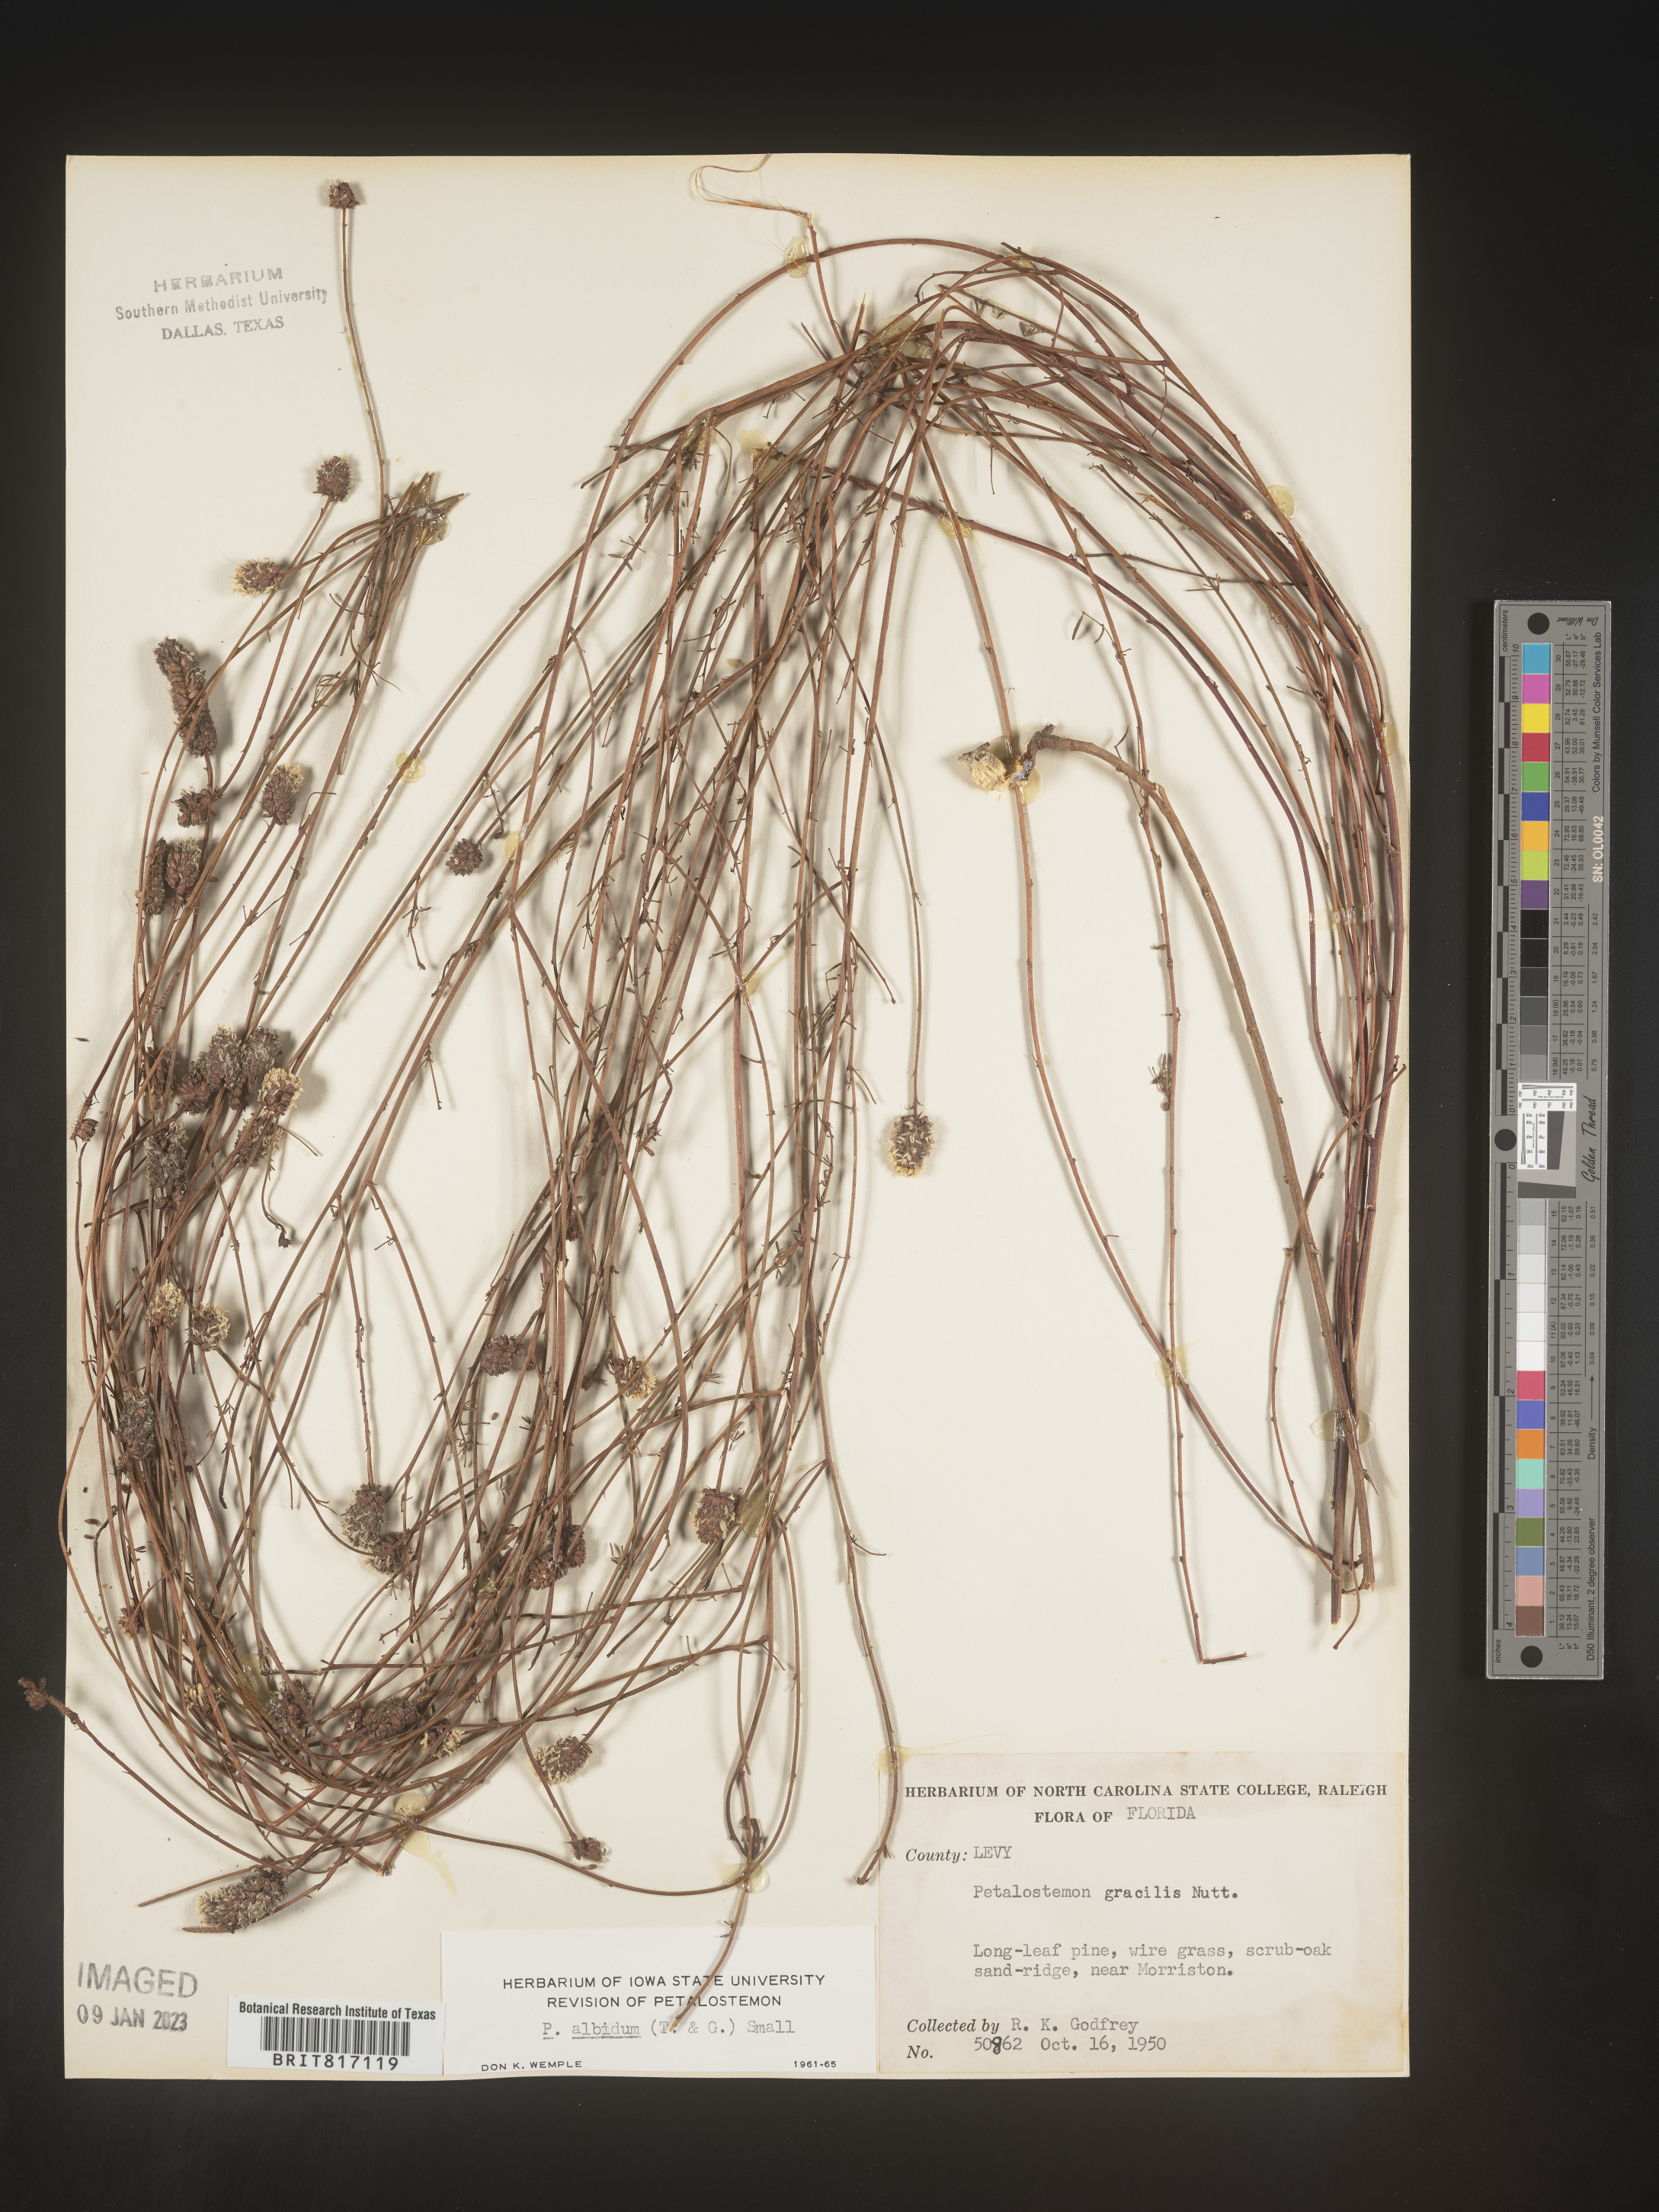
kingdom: Plantae
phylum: Tracheophyta
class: Magnoliopsida
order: Fabales
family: Fabaceae
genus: Dalea
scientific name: Dalea
